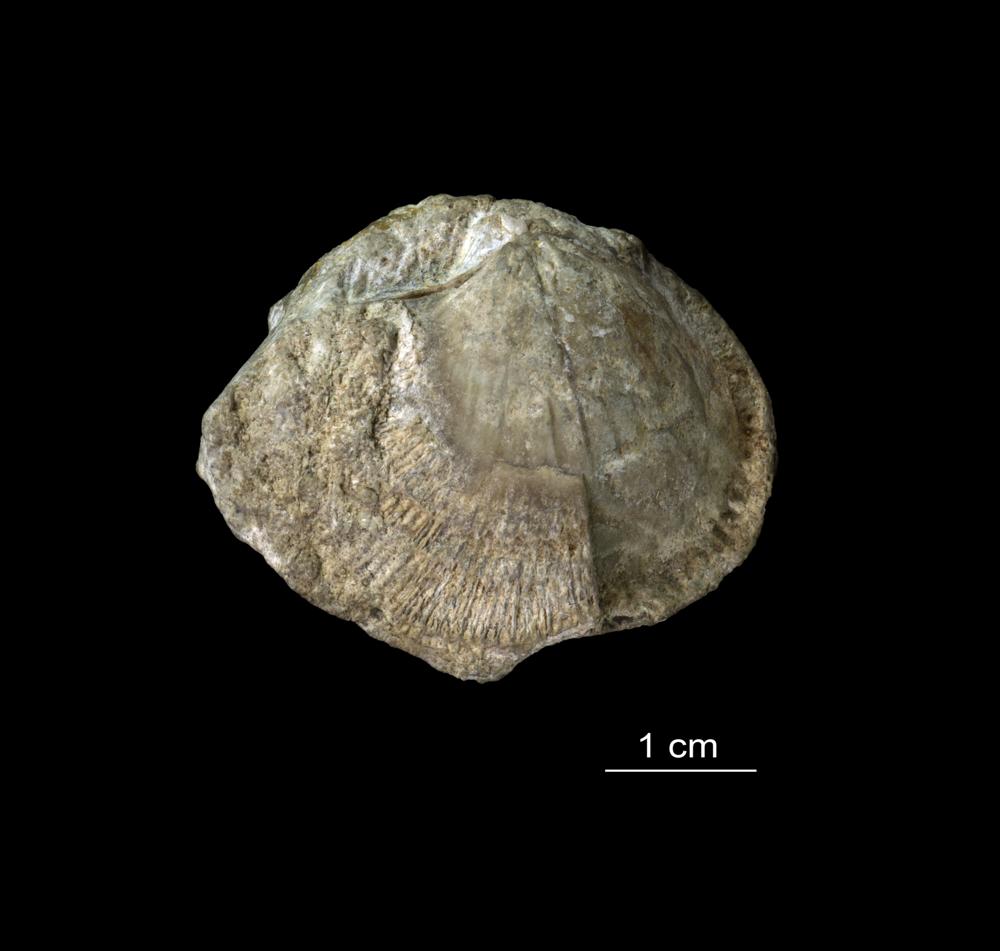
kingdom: Animalia
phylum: Brachiopoda
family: Gonambonitidae
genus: Estlandia
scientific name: Estlandia pyron
